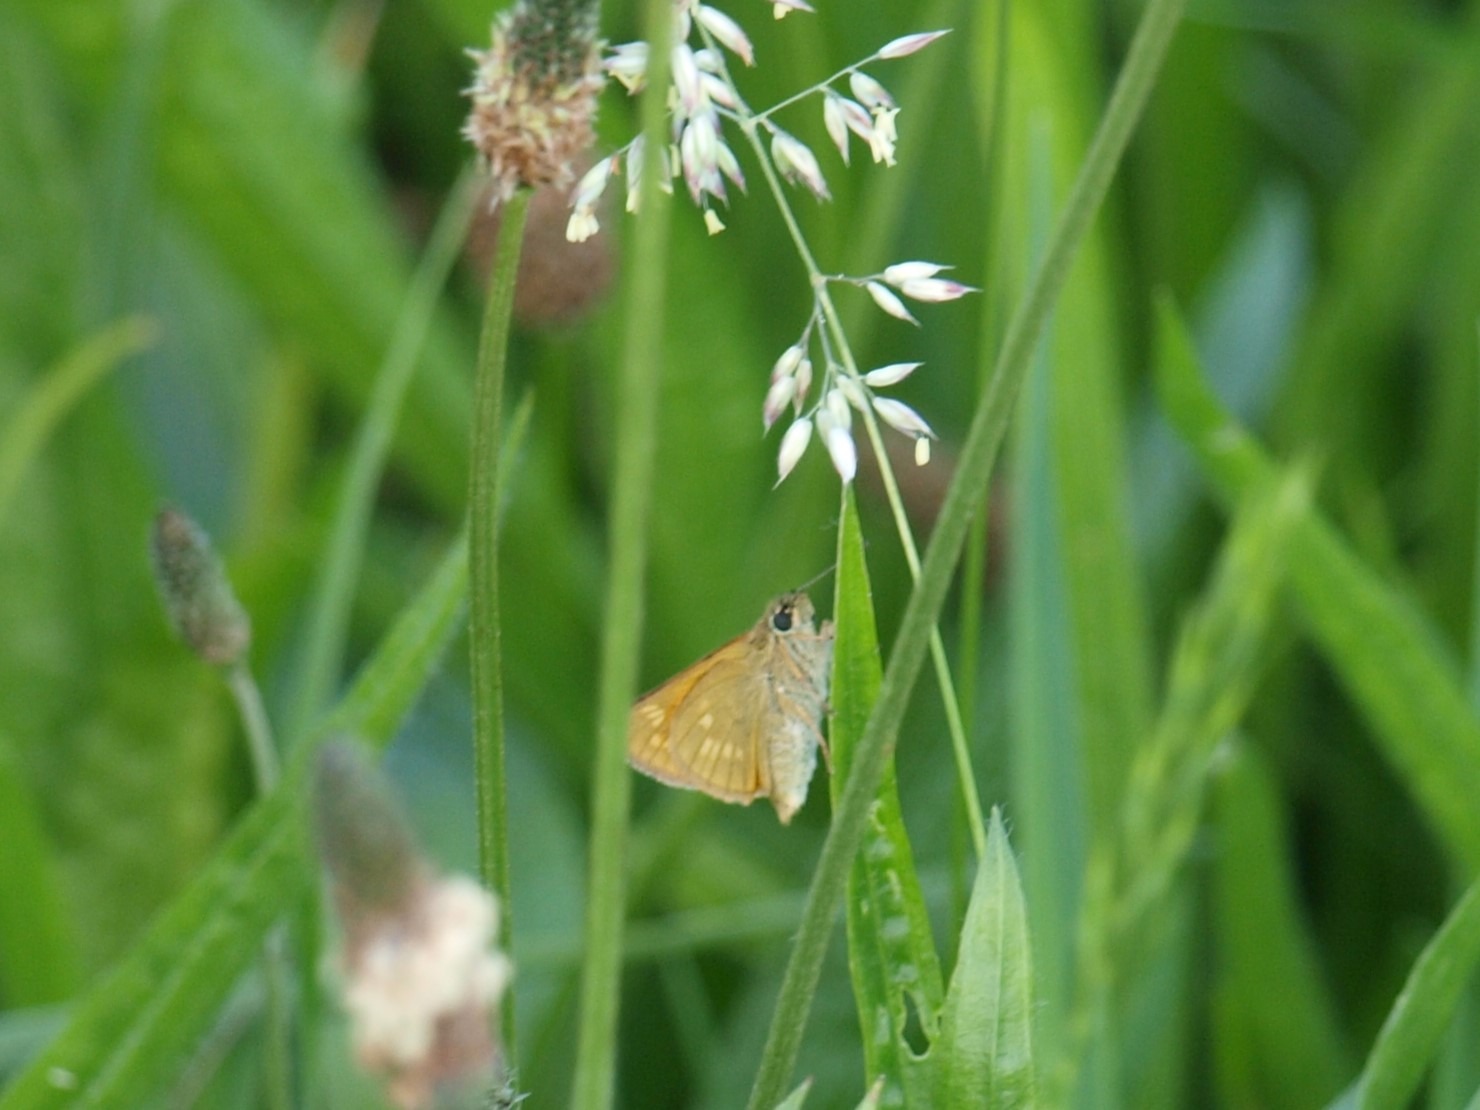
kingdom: Animalia
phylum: Arthropoda
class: Insecta
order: Lepidoptera
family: Hesperiidae
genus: Ochlodes
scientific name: Ochlodes venata
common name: Stor bredpande
